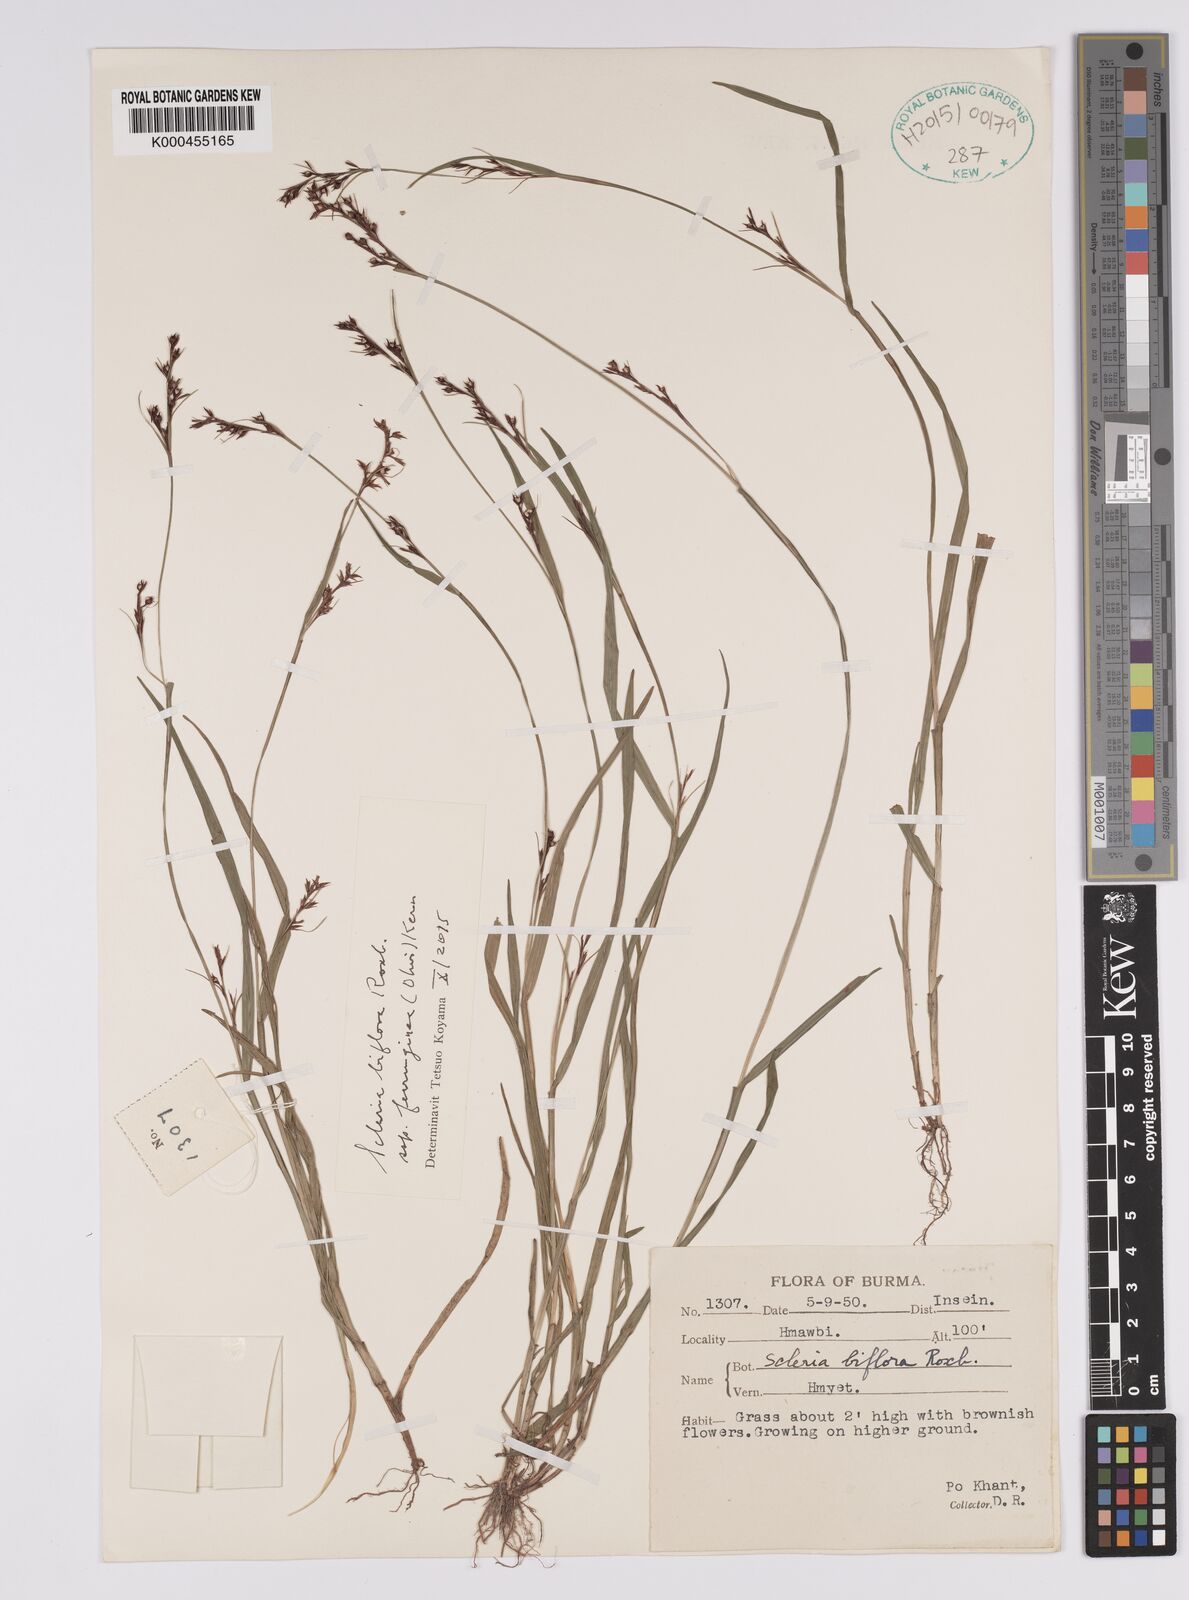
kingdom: Plantae
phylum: Tracheophyta
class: Liliopsida
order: Poales
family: Cyperaceae
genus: Scleria
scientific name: Scleria biflora
